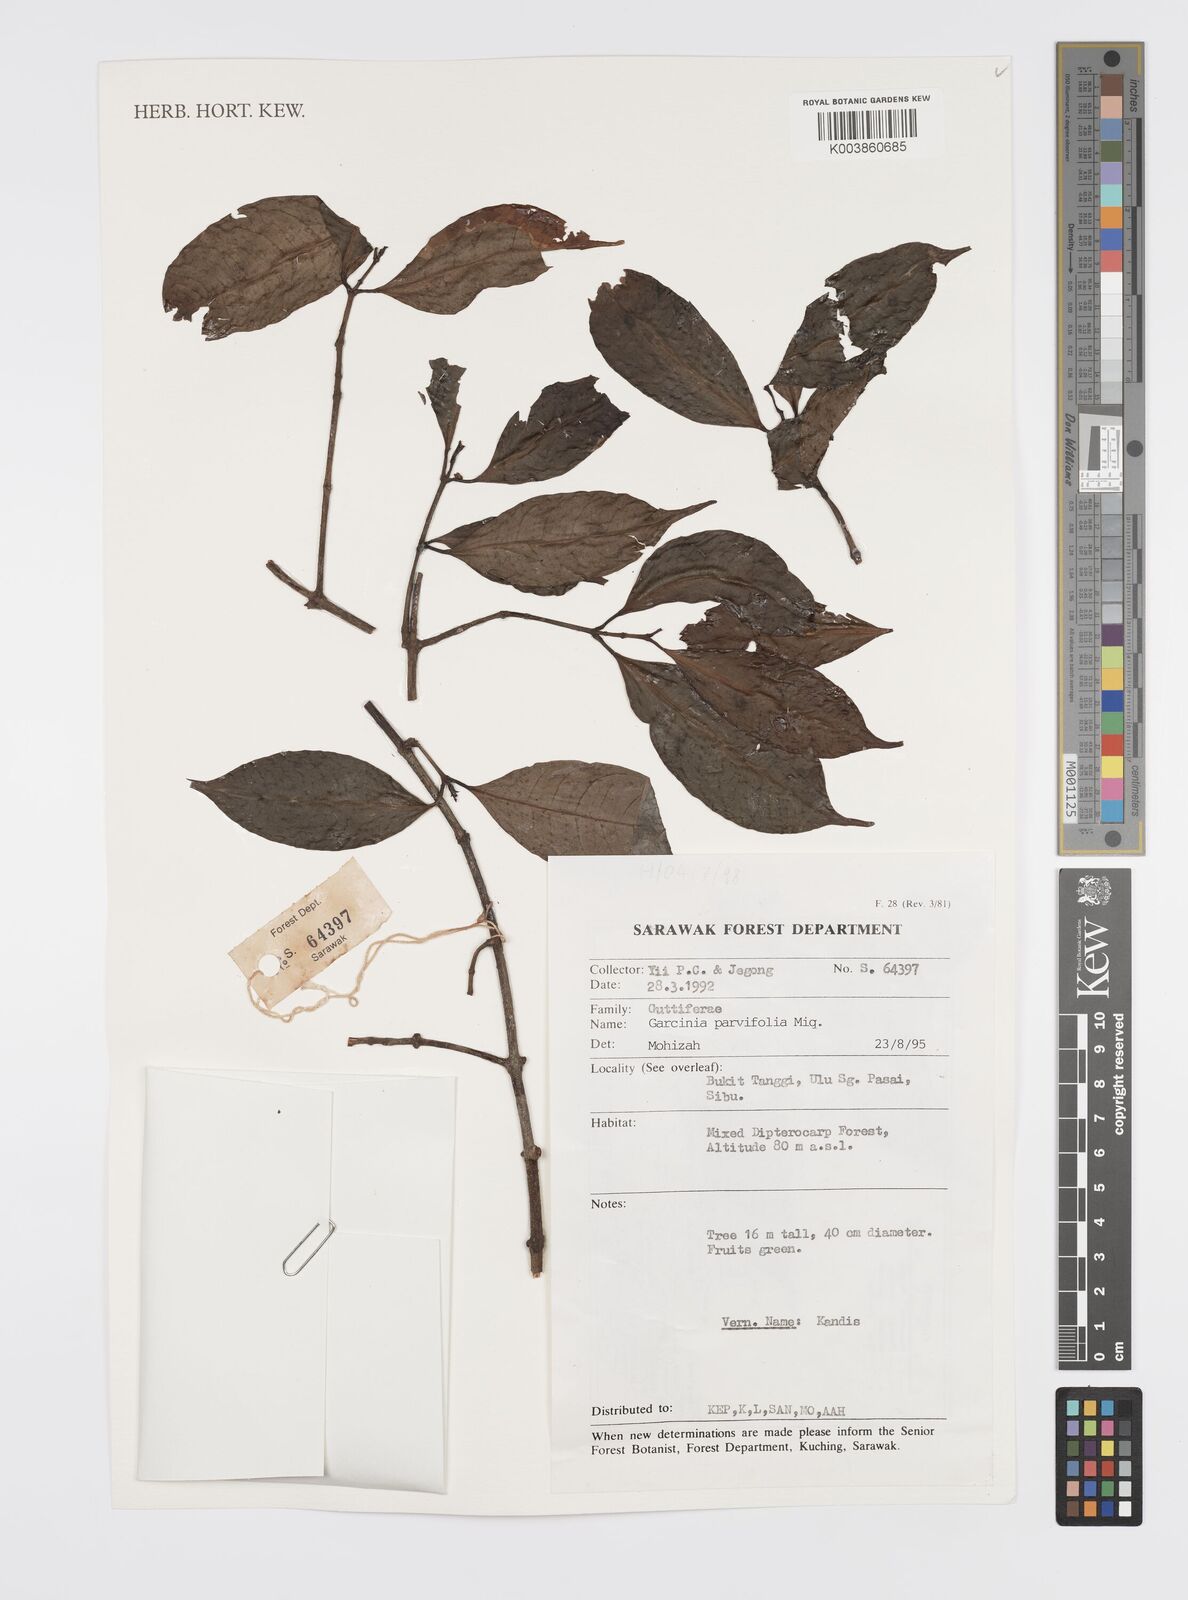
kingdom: Plantae
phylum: Tracheophyta
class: Magnoliopsida
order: Malpighiales
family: Clusiaceae
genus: Garcinia
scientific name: Garcinia parvifolia
